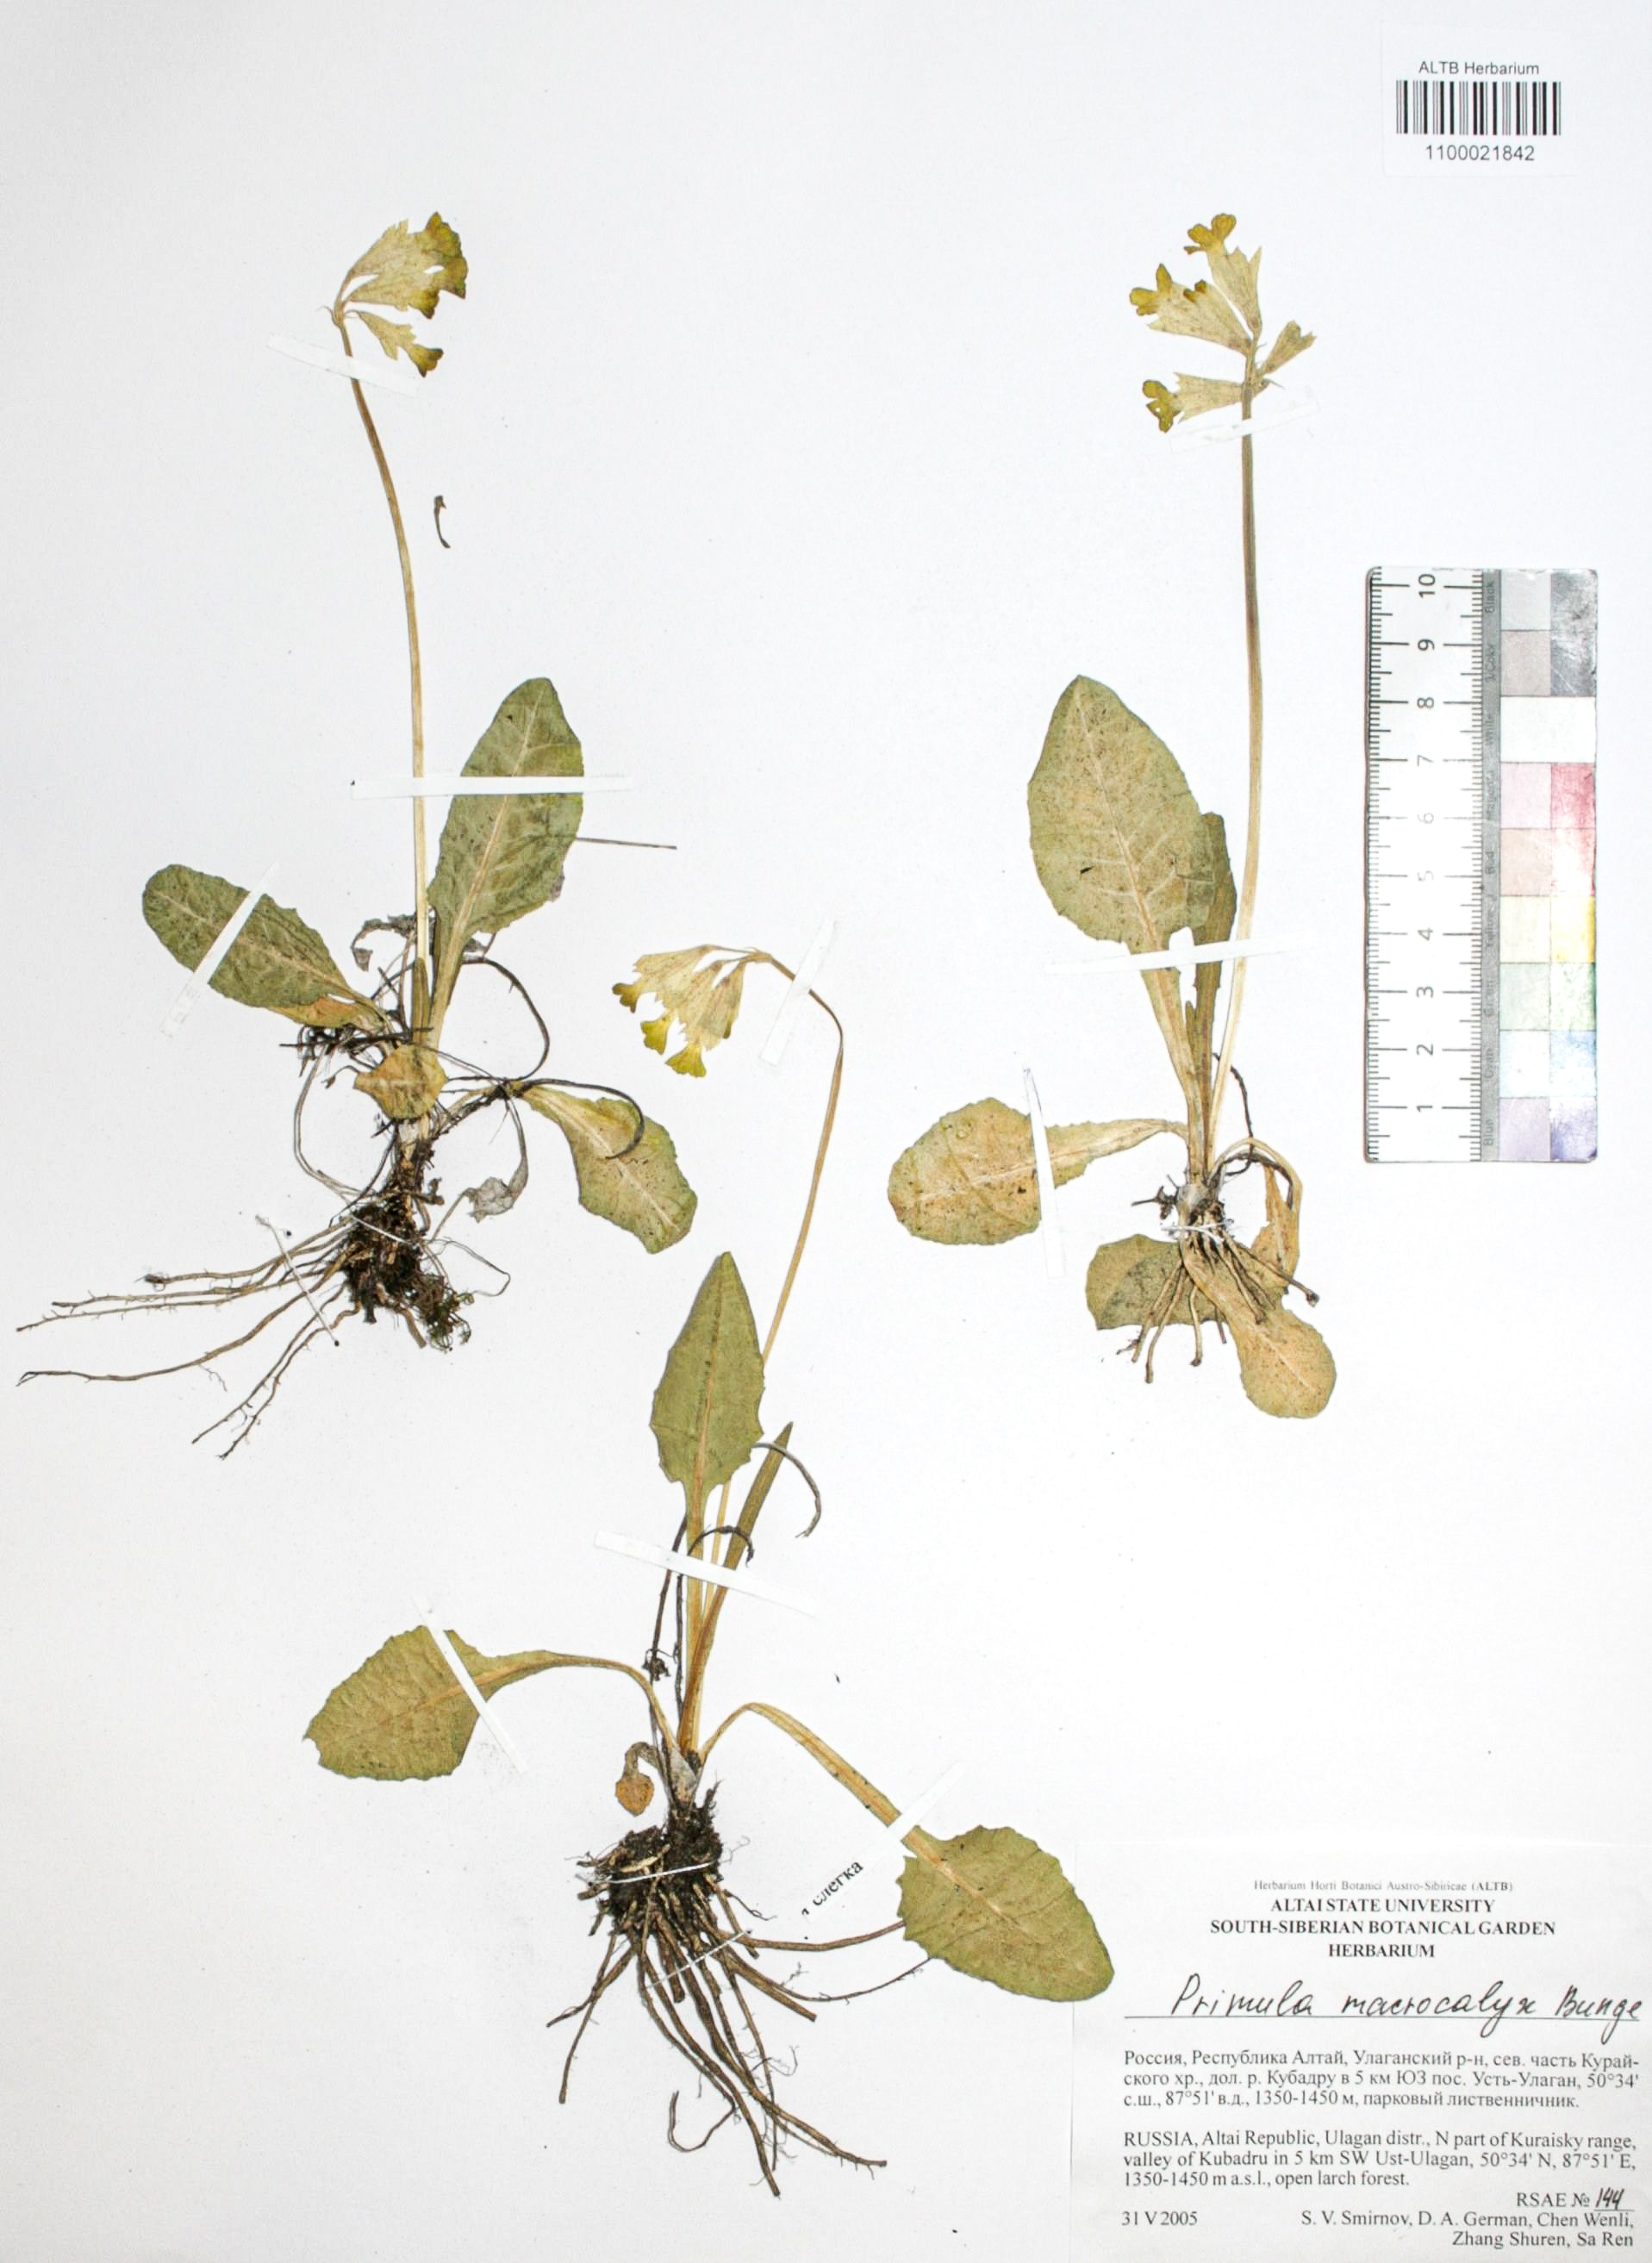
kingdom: Plantae
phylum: Tracheophyta
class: Magnoliopsida
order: Ericales
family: Primulaceae
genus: Primula
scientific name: Primula veris
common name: Cowslip
